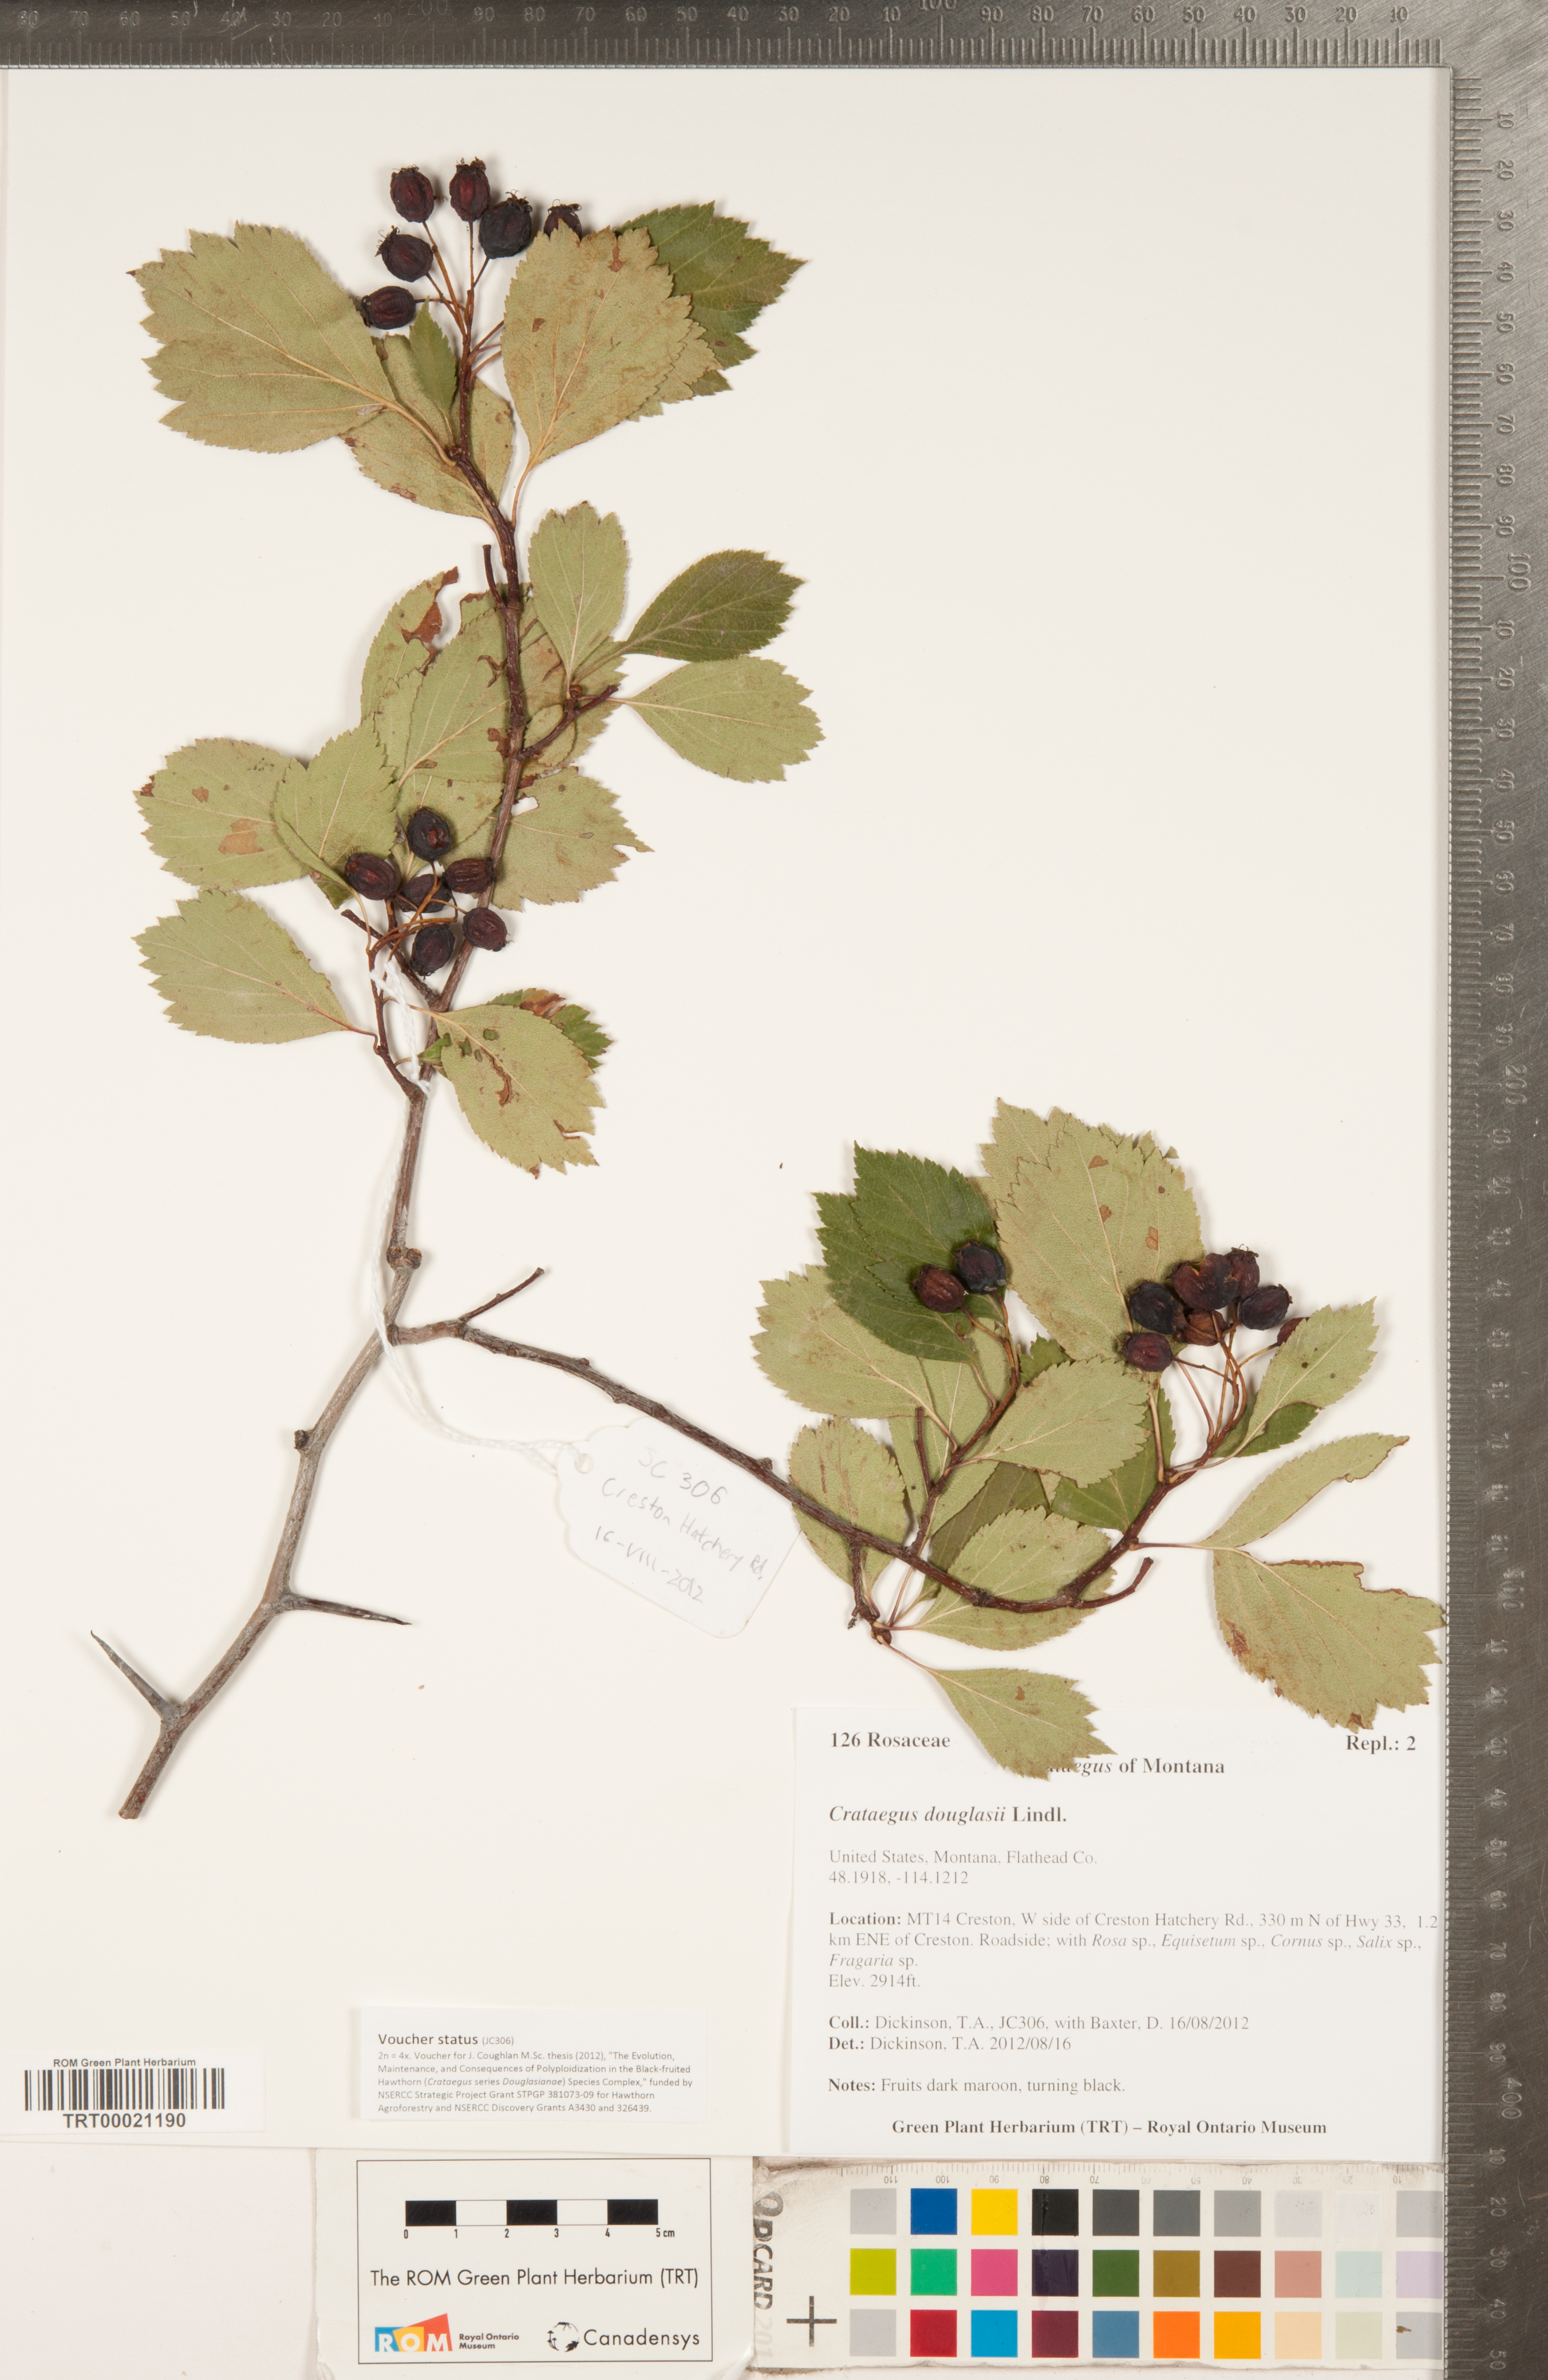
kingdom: Plantae
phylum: Tracheophyta
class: Magnoliopsida
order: Rosales
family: Rosaceae
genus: Crataegus
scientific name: Crataegus douglasii
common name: Black hawthorn
